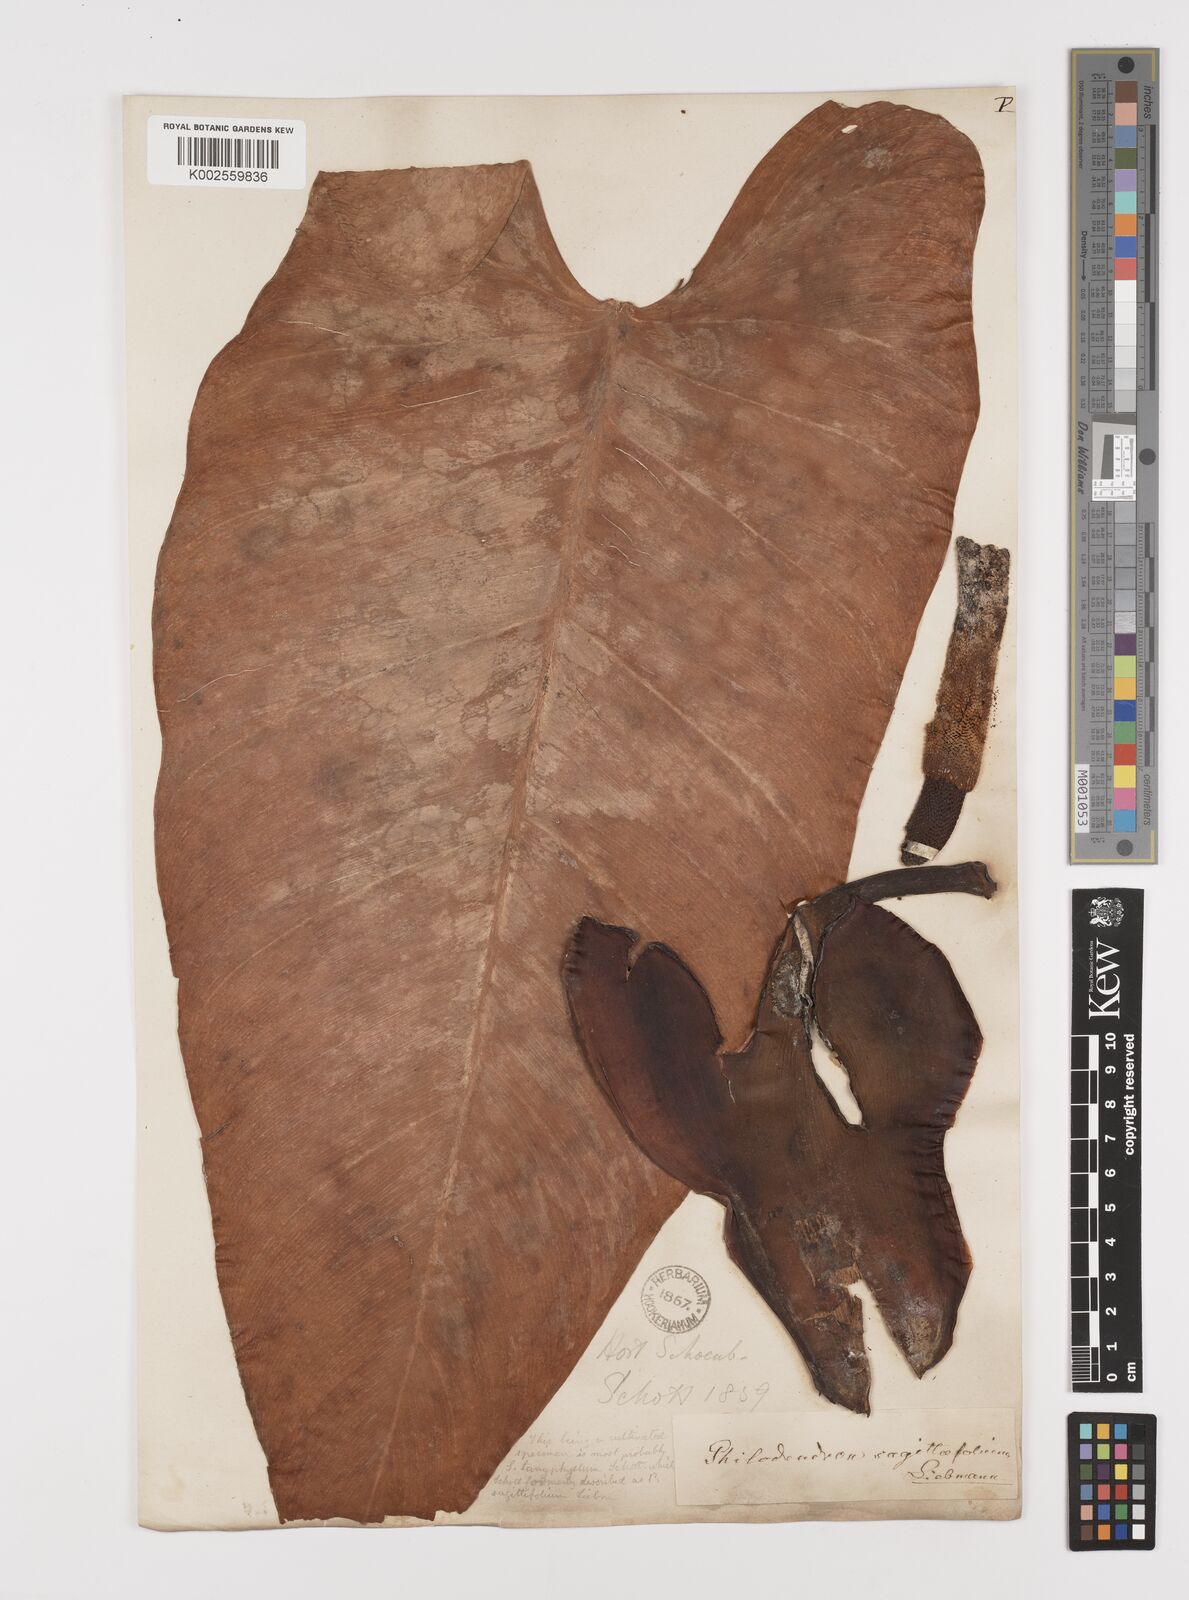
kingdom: Plantae
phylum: Tracheophyta
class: Liliopsida
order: Alismatales
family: Araceae
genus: Philodendron
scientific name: Philodendron sagittifolium
